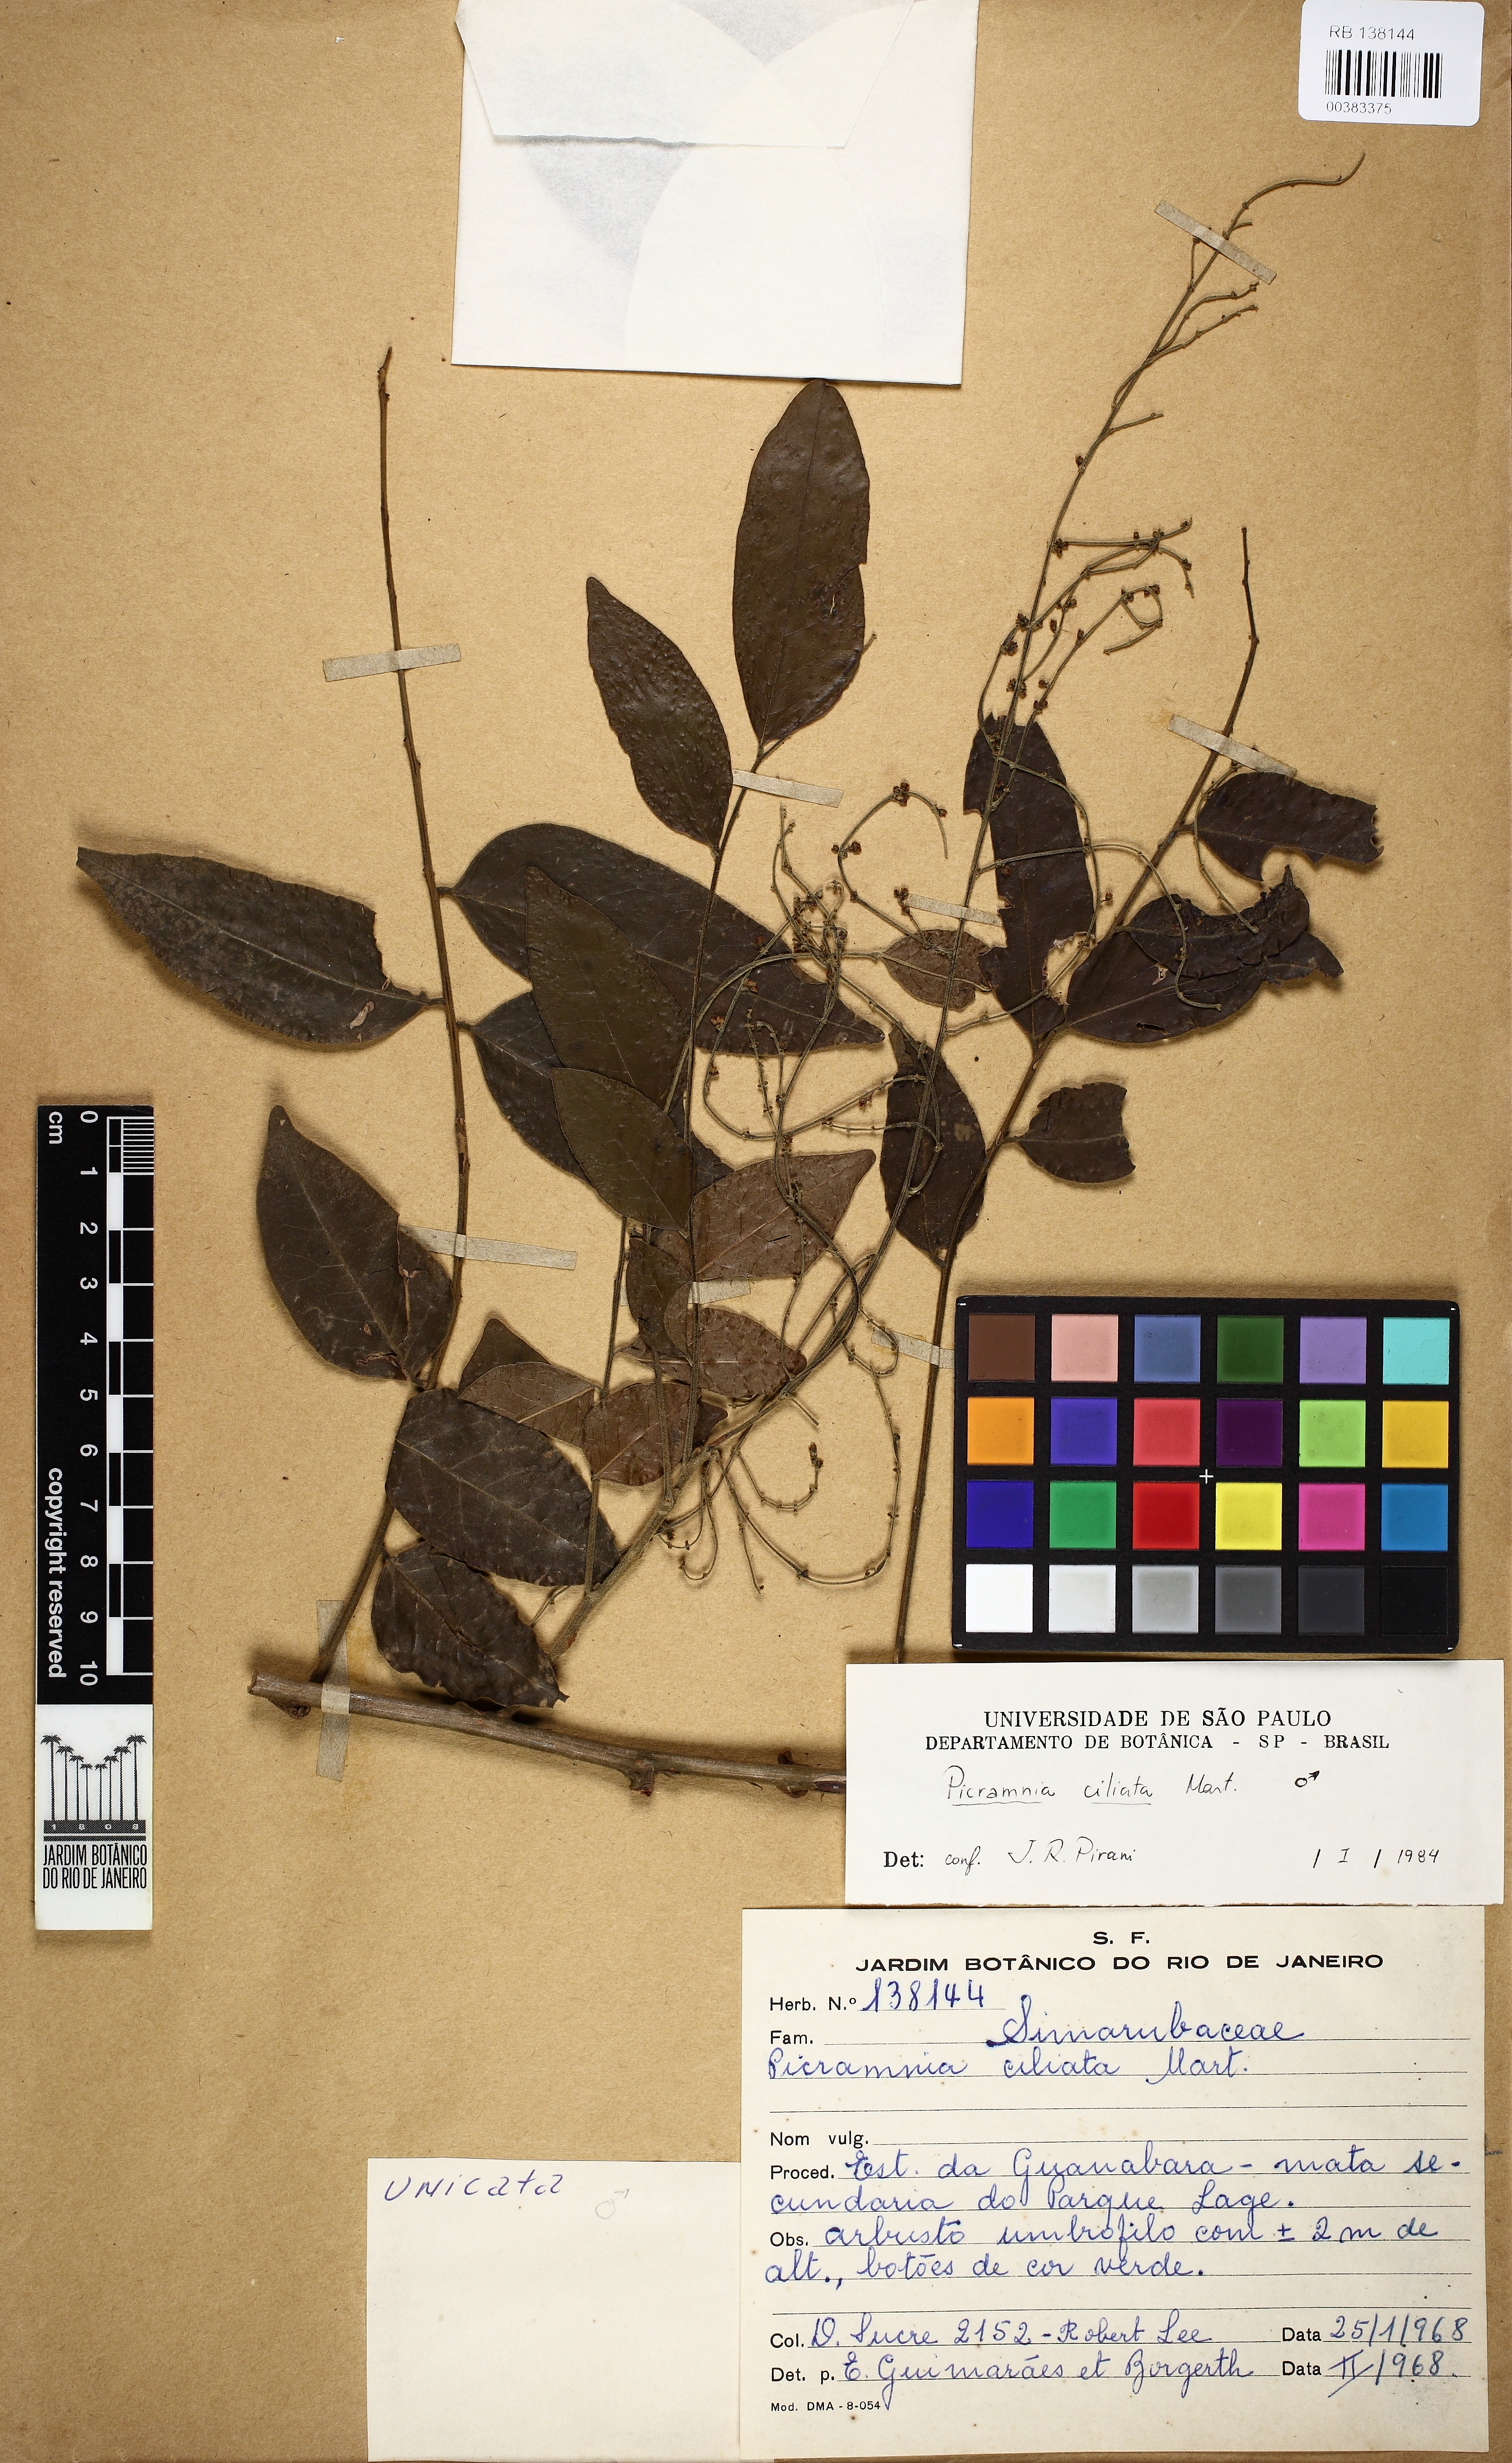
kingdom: Plantae
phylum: Tracheophyta
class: Magnoliopsida
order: Picramniales
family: Picramniaceae
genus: Picramnia
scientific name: Picramnia ciliata
